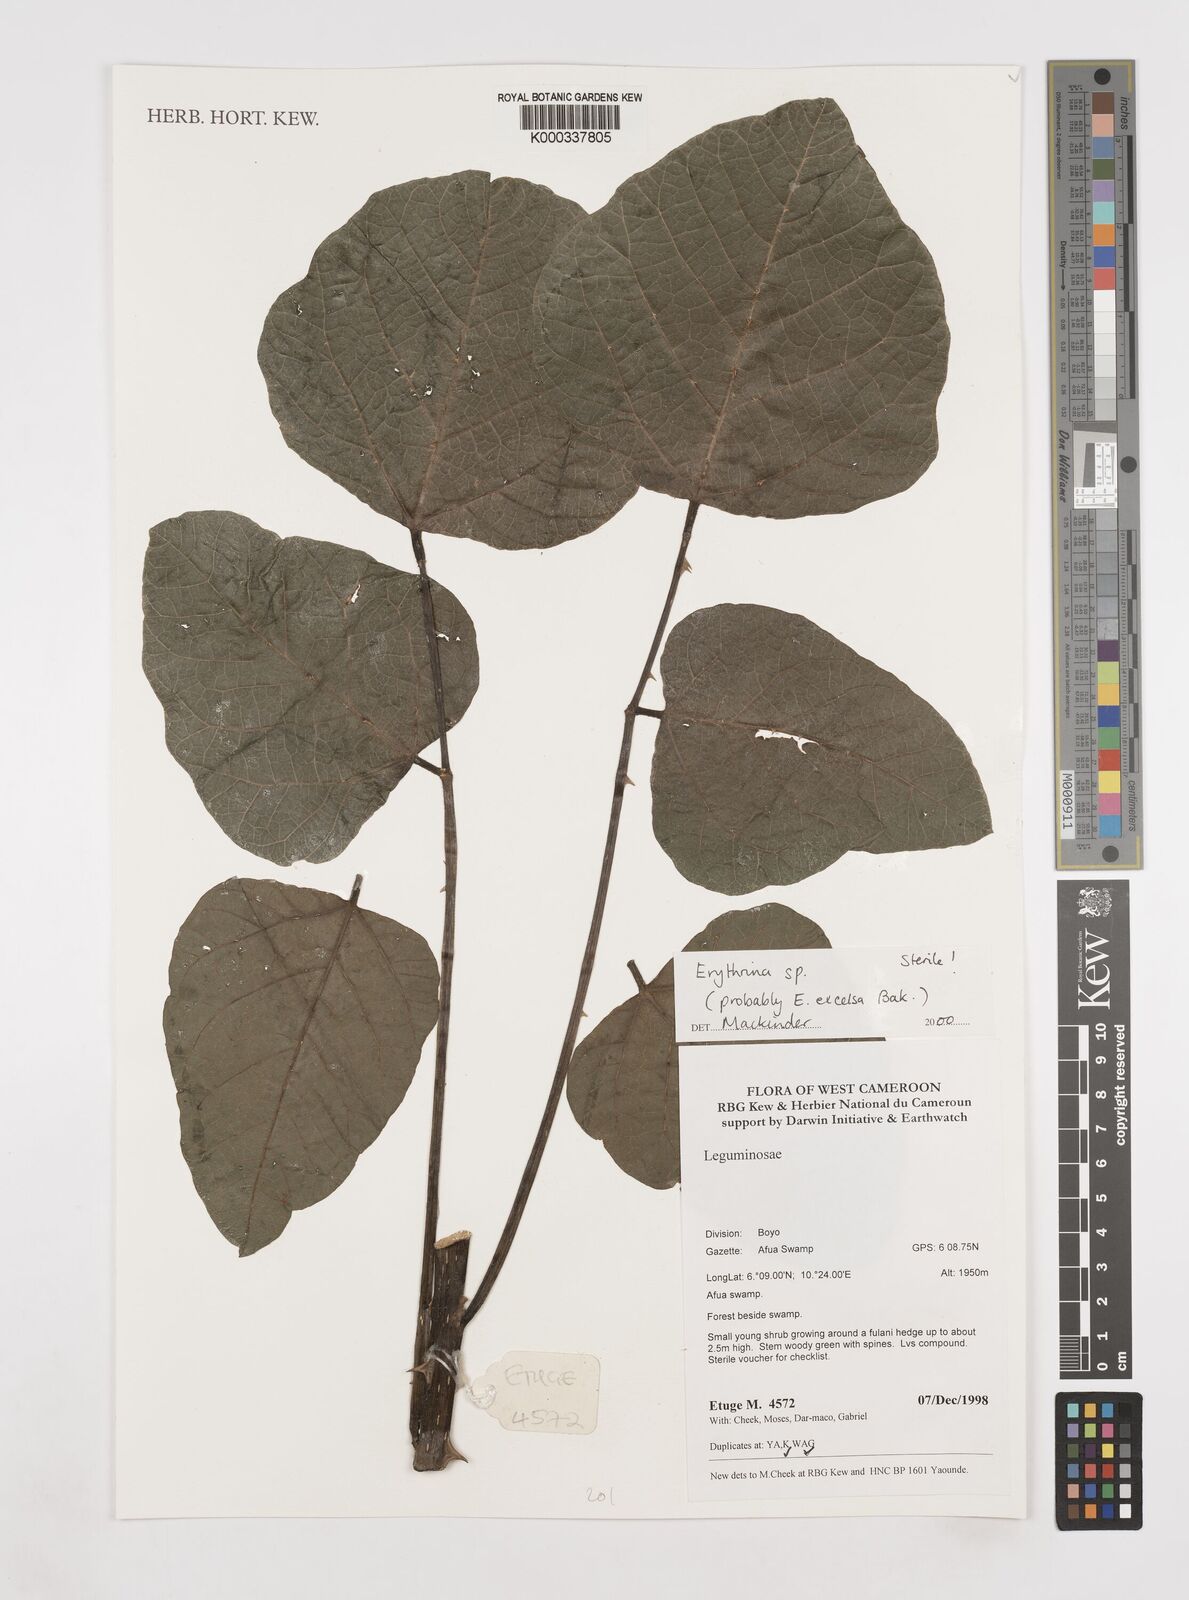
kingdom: Plantae
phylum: Tracheophyta
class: Magnoliopsida
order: Fabales
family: Fabaceae
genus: Erythrina
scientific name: Erythrina
